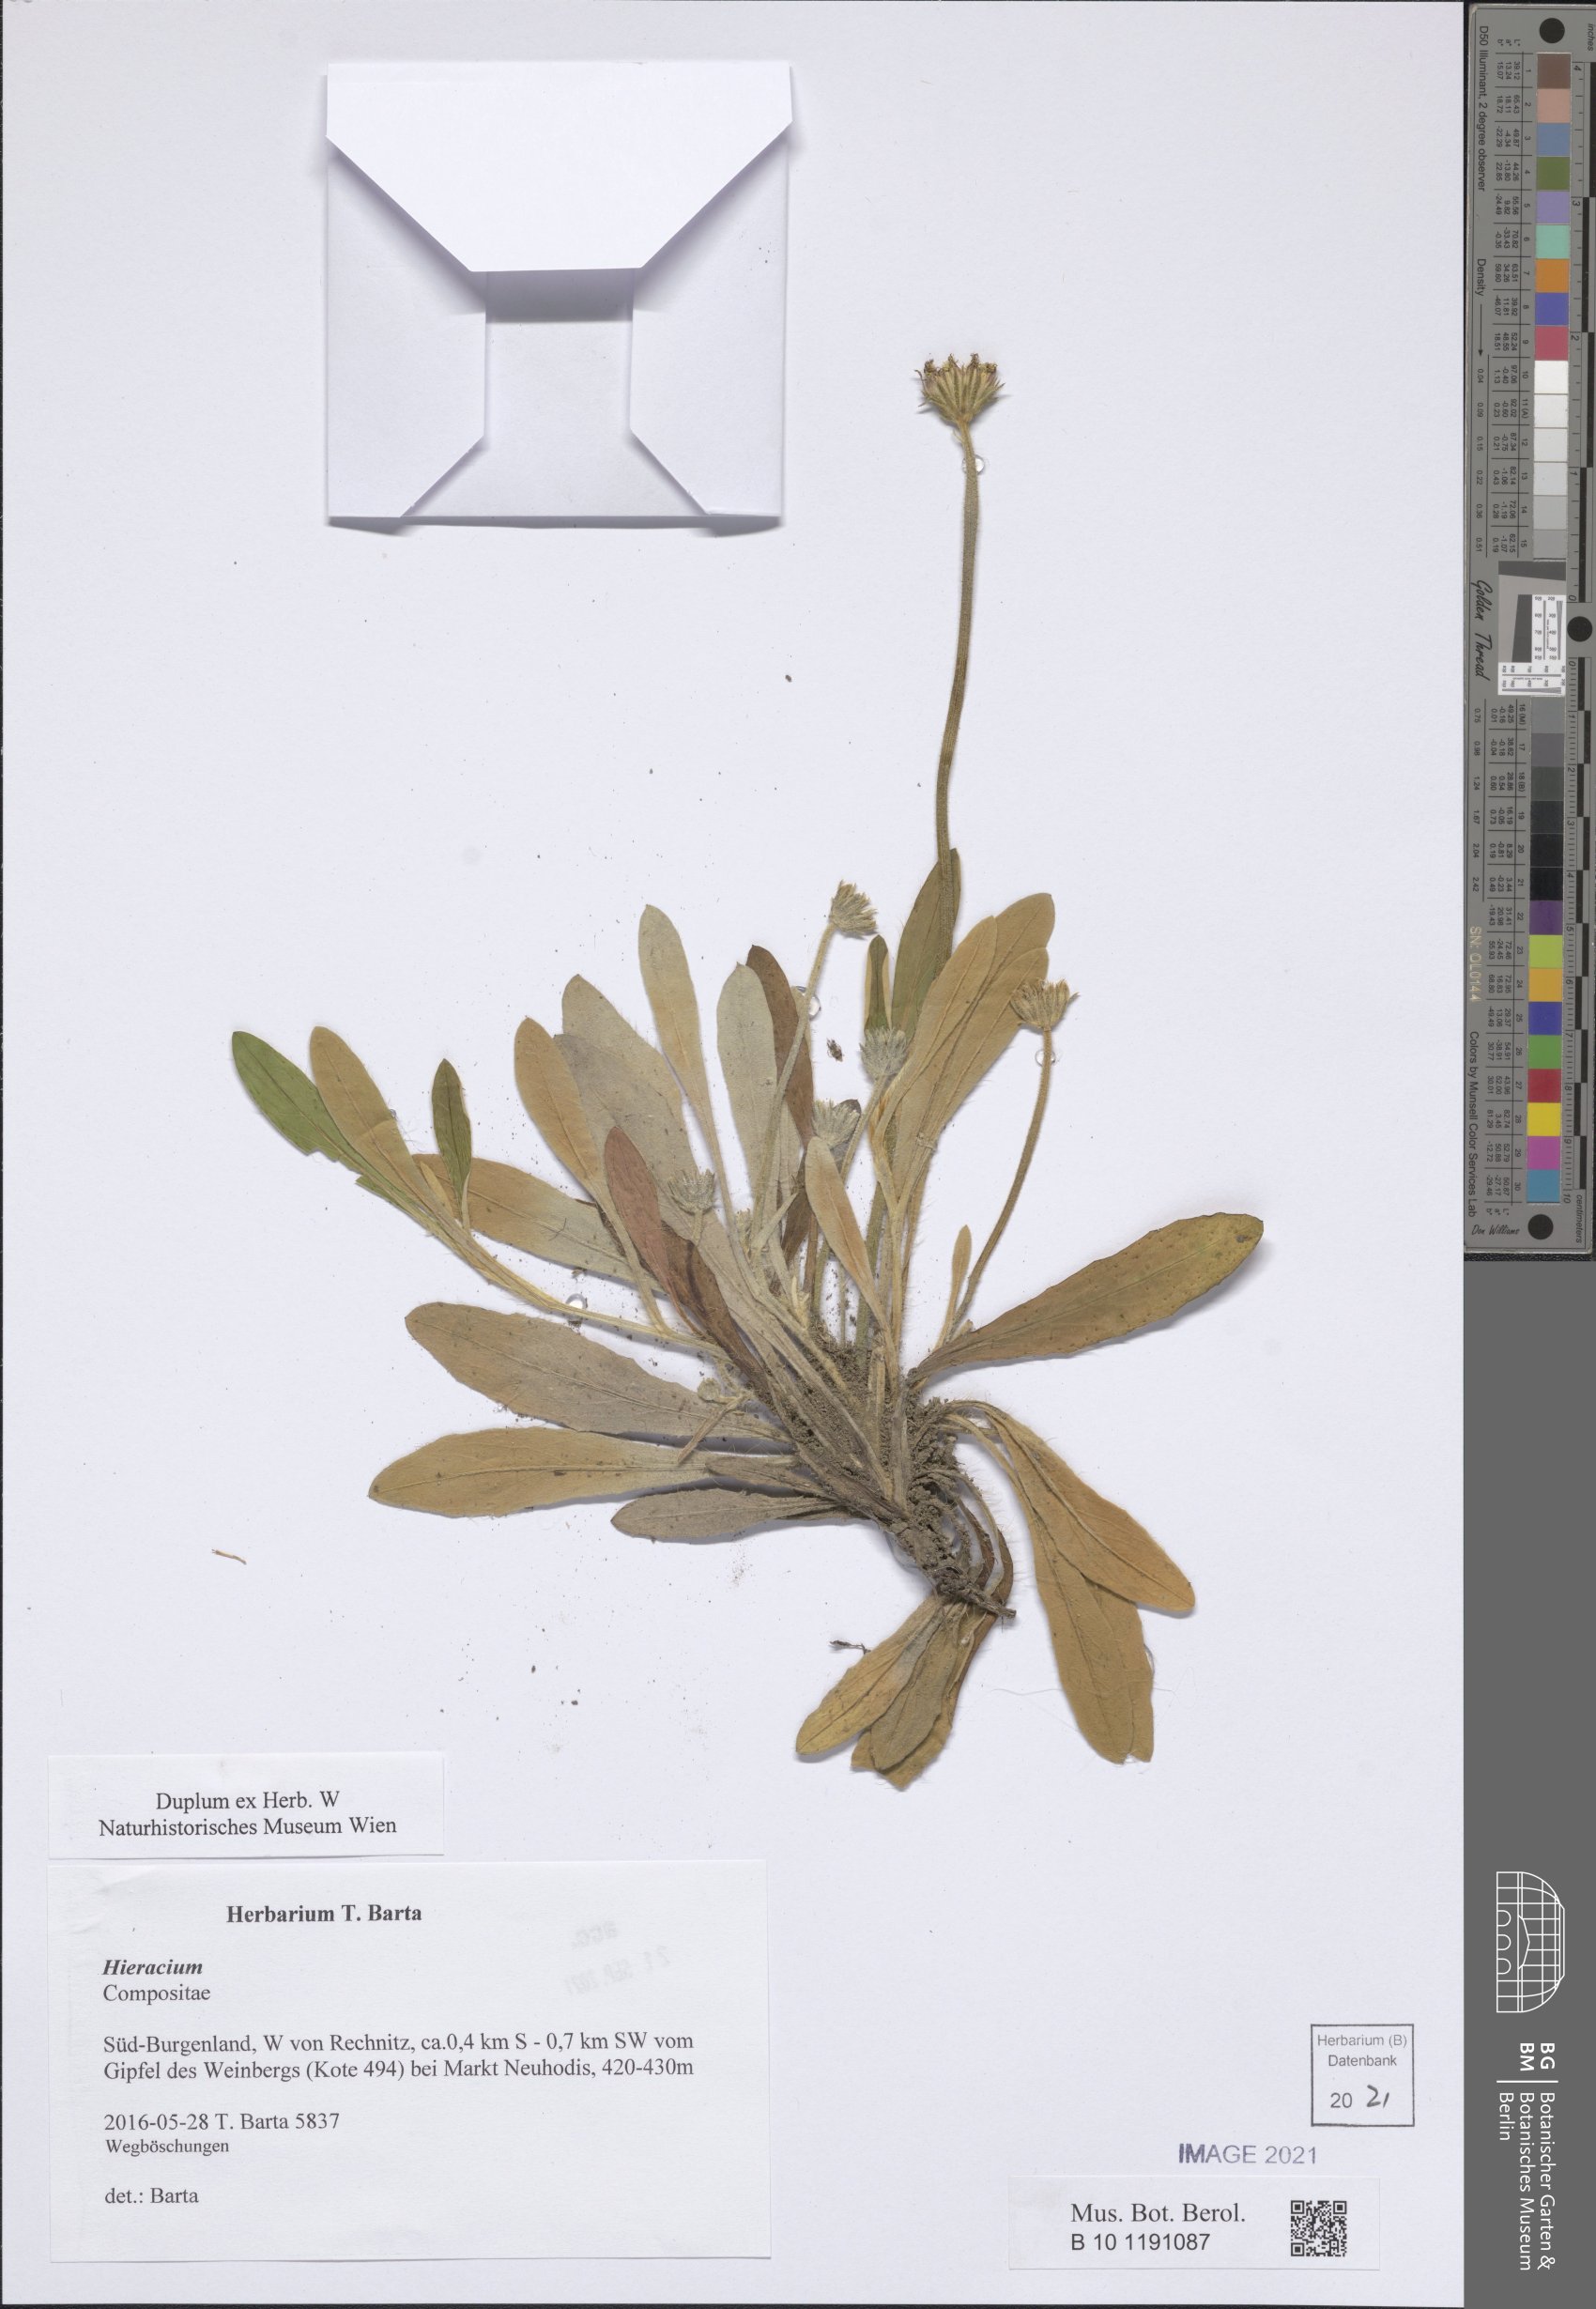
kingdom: Plantae
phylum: Tracheophyta
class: Magnoliopsida
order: Asterales
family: Asteraceae
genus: Hieracium
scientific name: Hieracium
